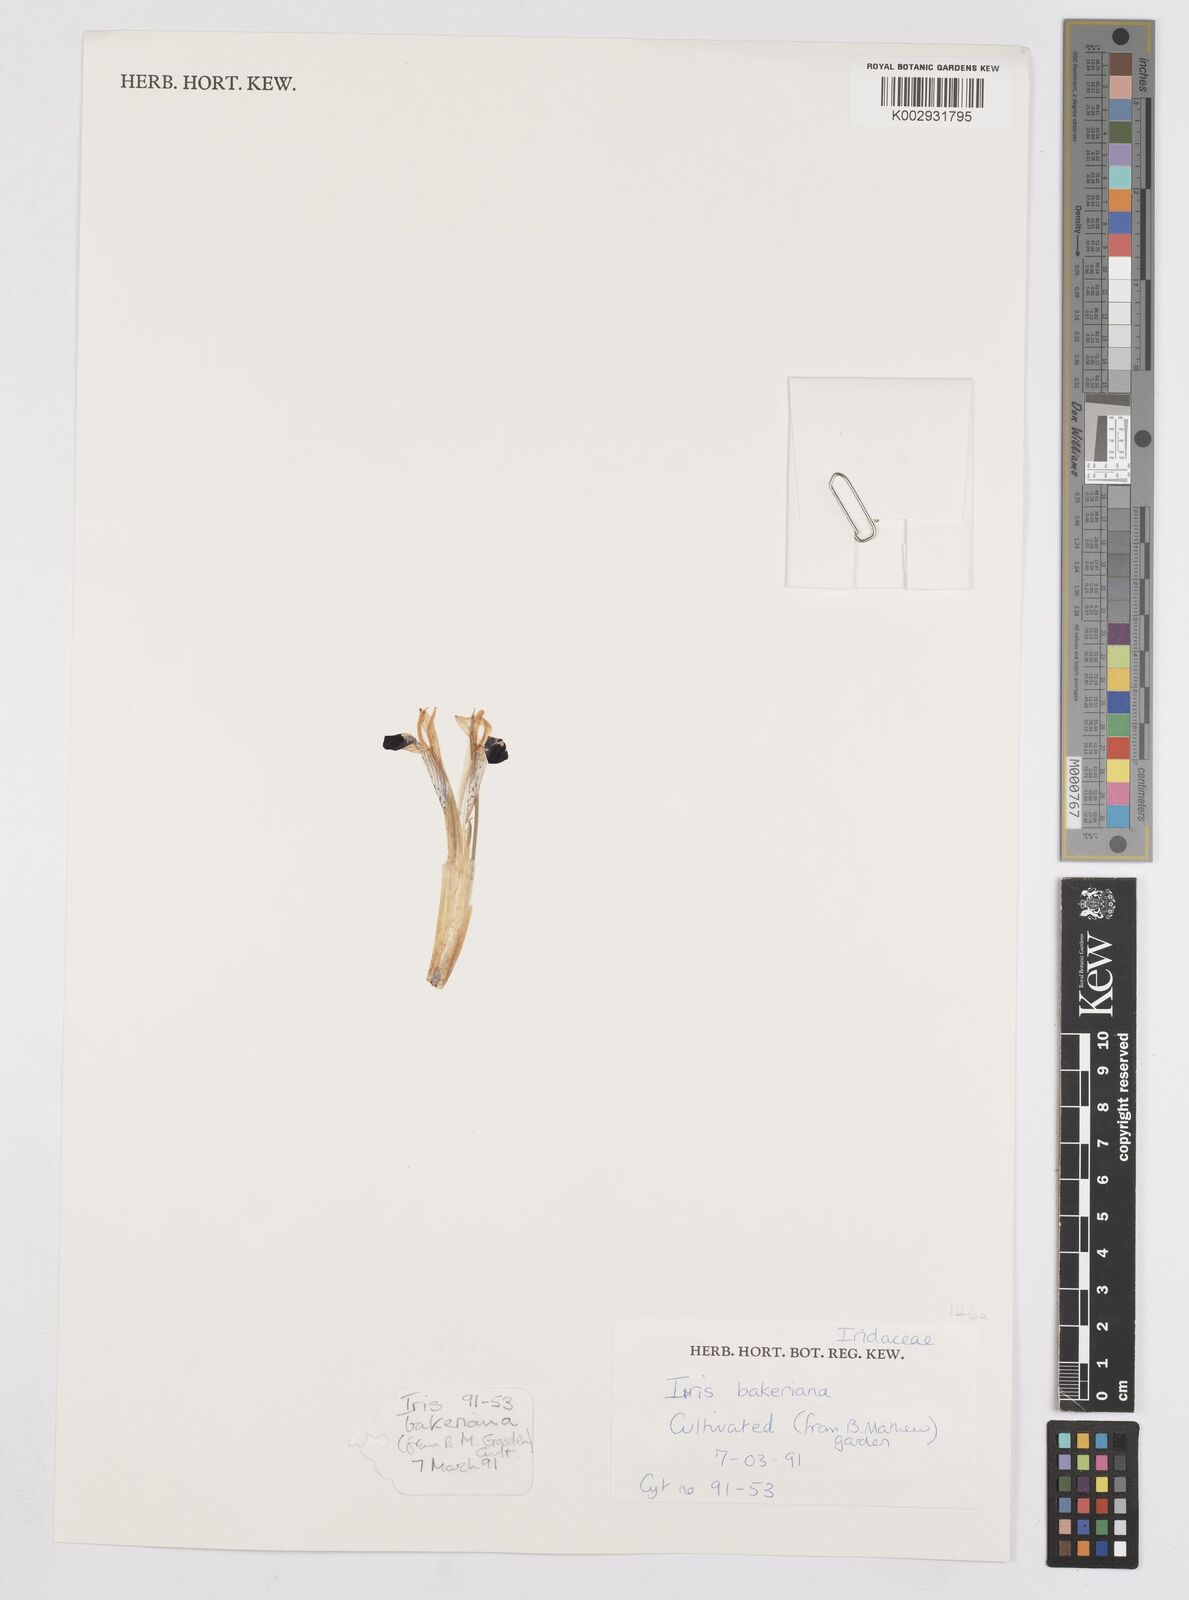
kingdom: Plantae
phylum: Tracheophyta
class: Liliopsida
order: Asparagales
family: Iridaceae
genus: Iris
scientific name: Iris reticulata
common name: Netted iris
